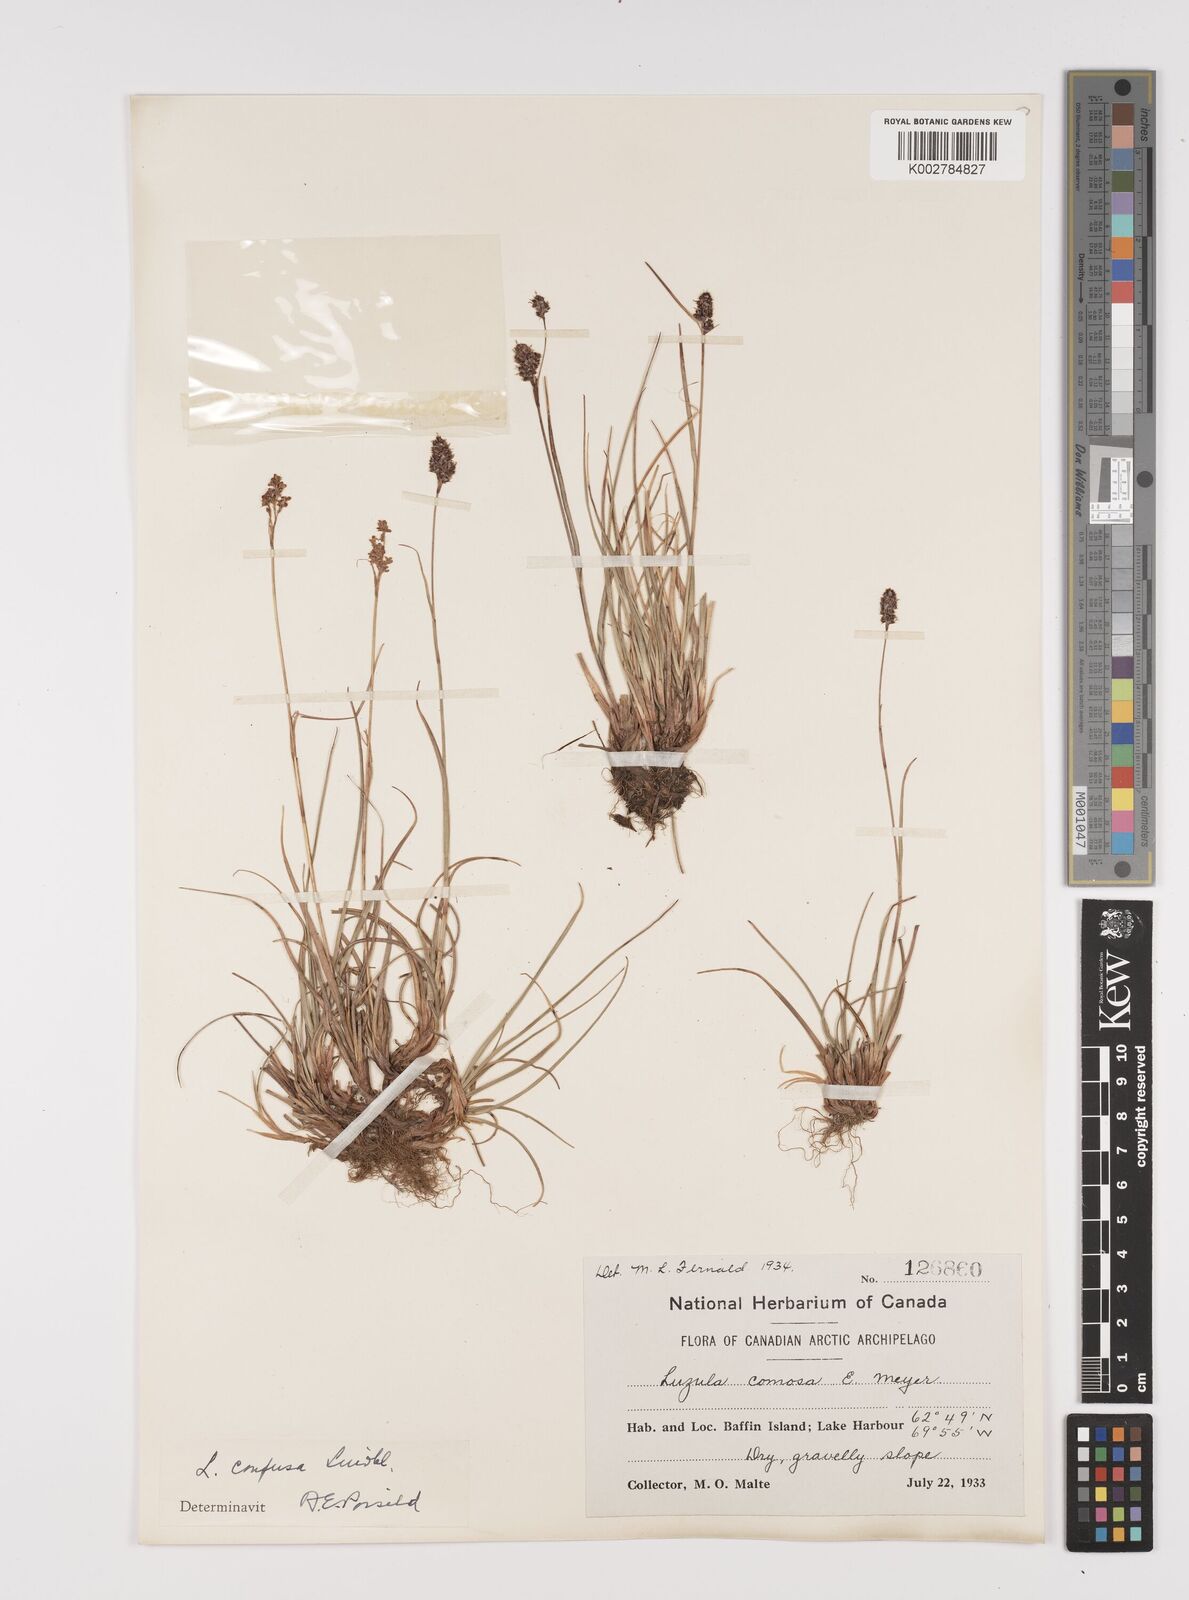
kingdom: Plantae
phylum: Tracheophyta
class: Liliopsida
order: Poales
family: Juncaceae
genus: Luzula
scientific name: Luzula confusa
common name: Northern wood rush
